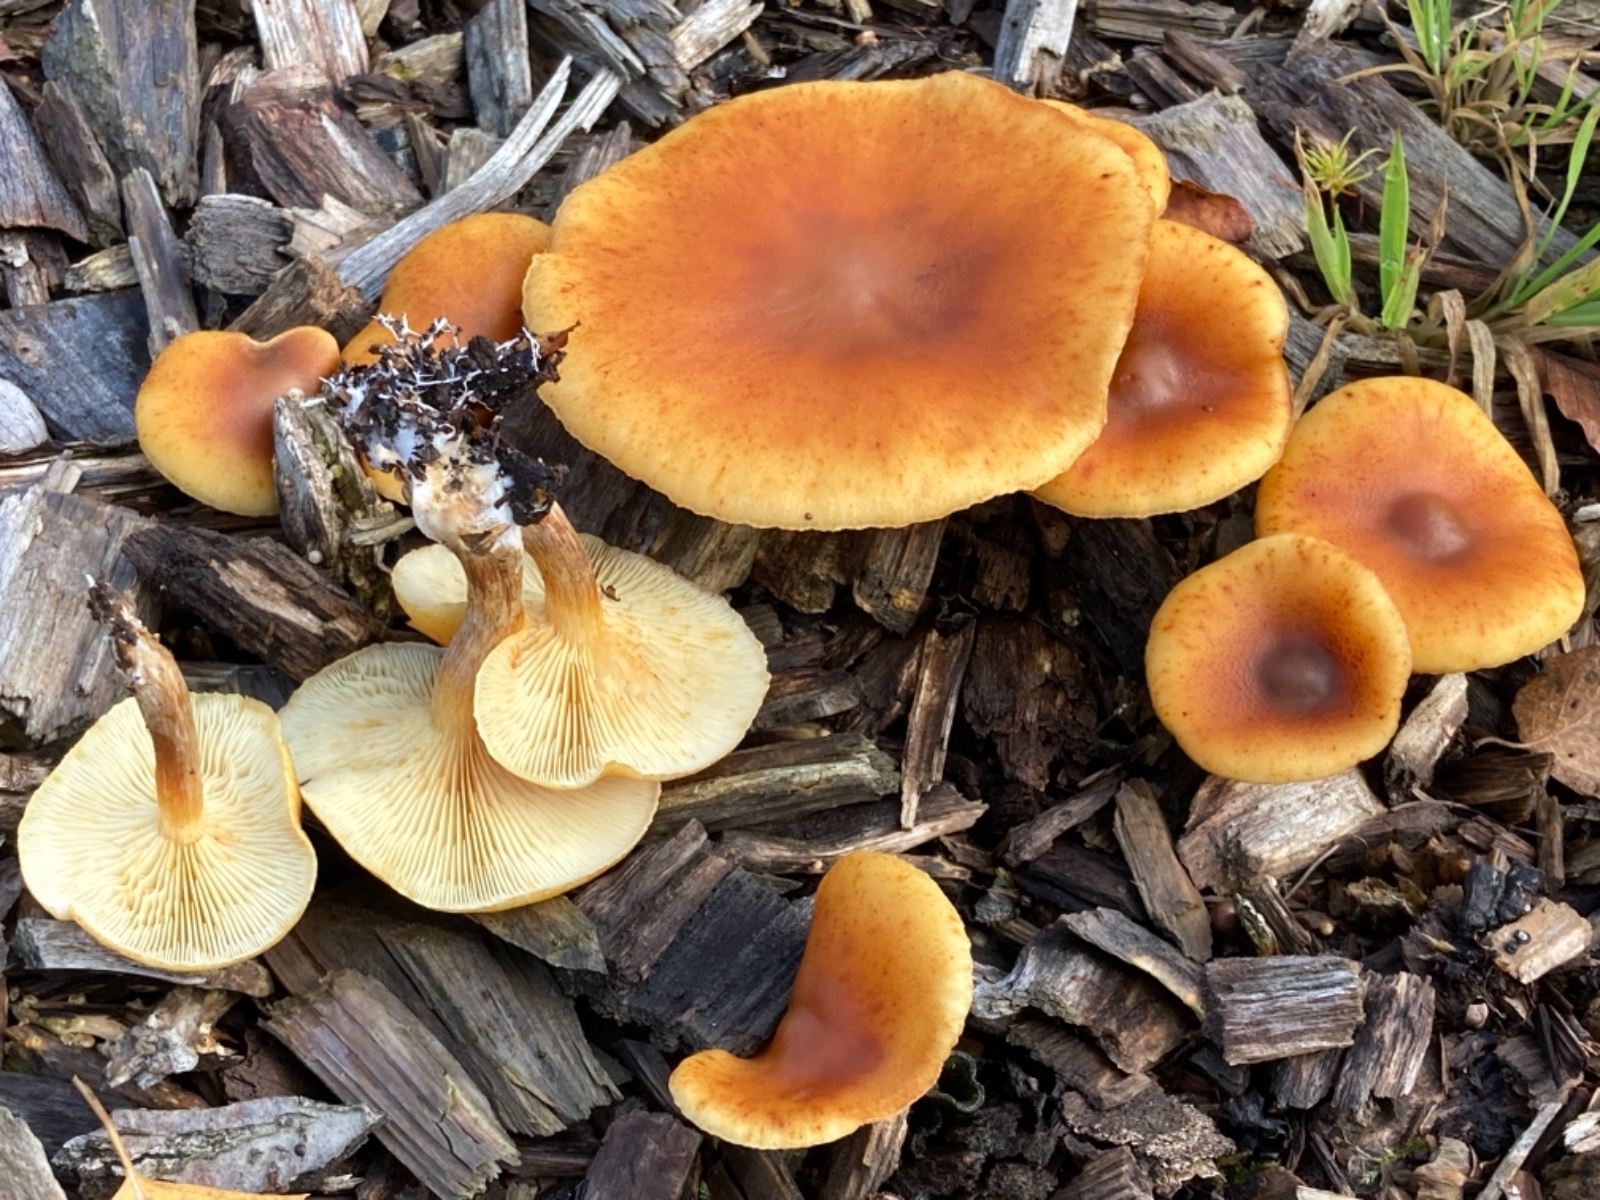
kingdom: Fungi
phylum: Basidiomycota
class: Agaricomycetes
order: Agaricales
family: Hymenogastraceae
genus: Gymnopilus
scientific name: Gymnopilus penetrans
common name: plettet flammehat
